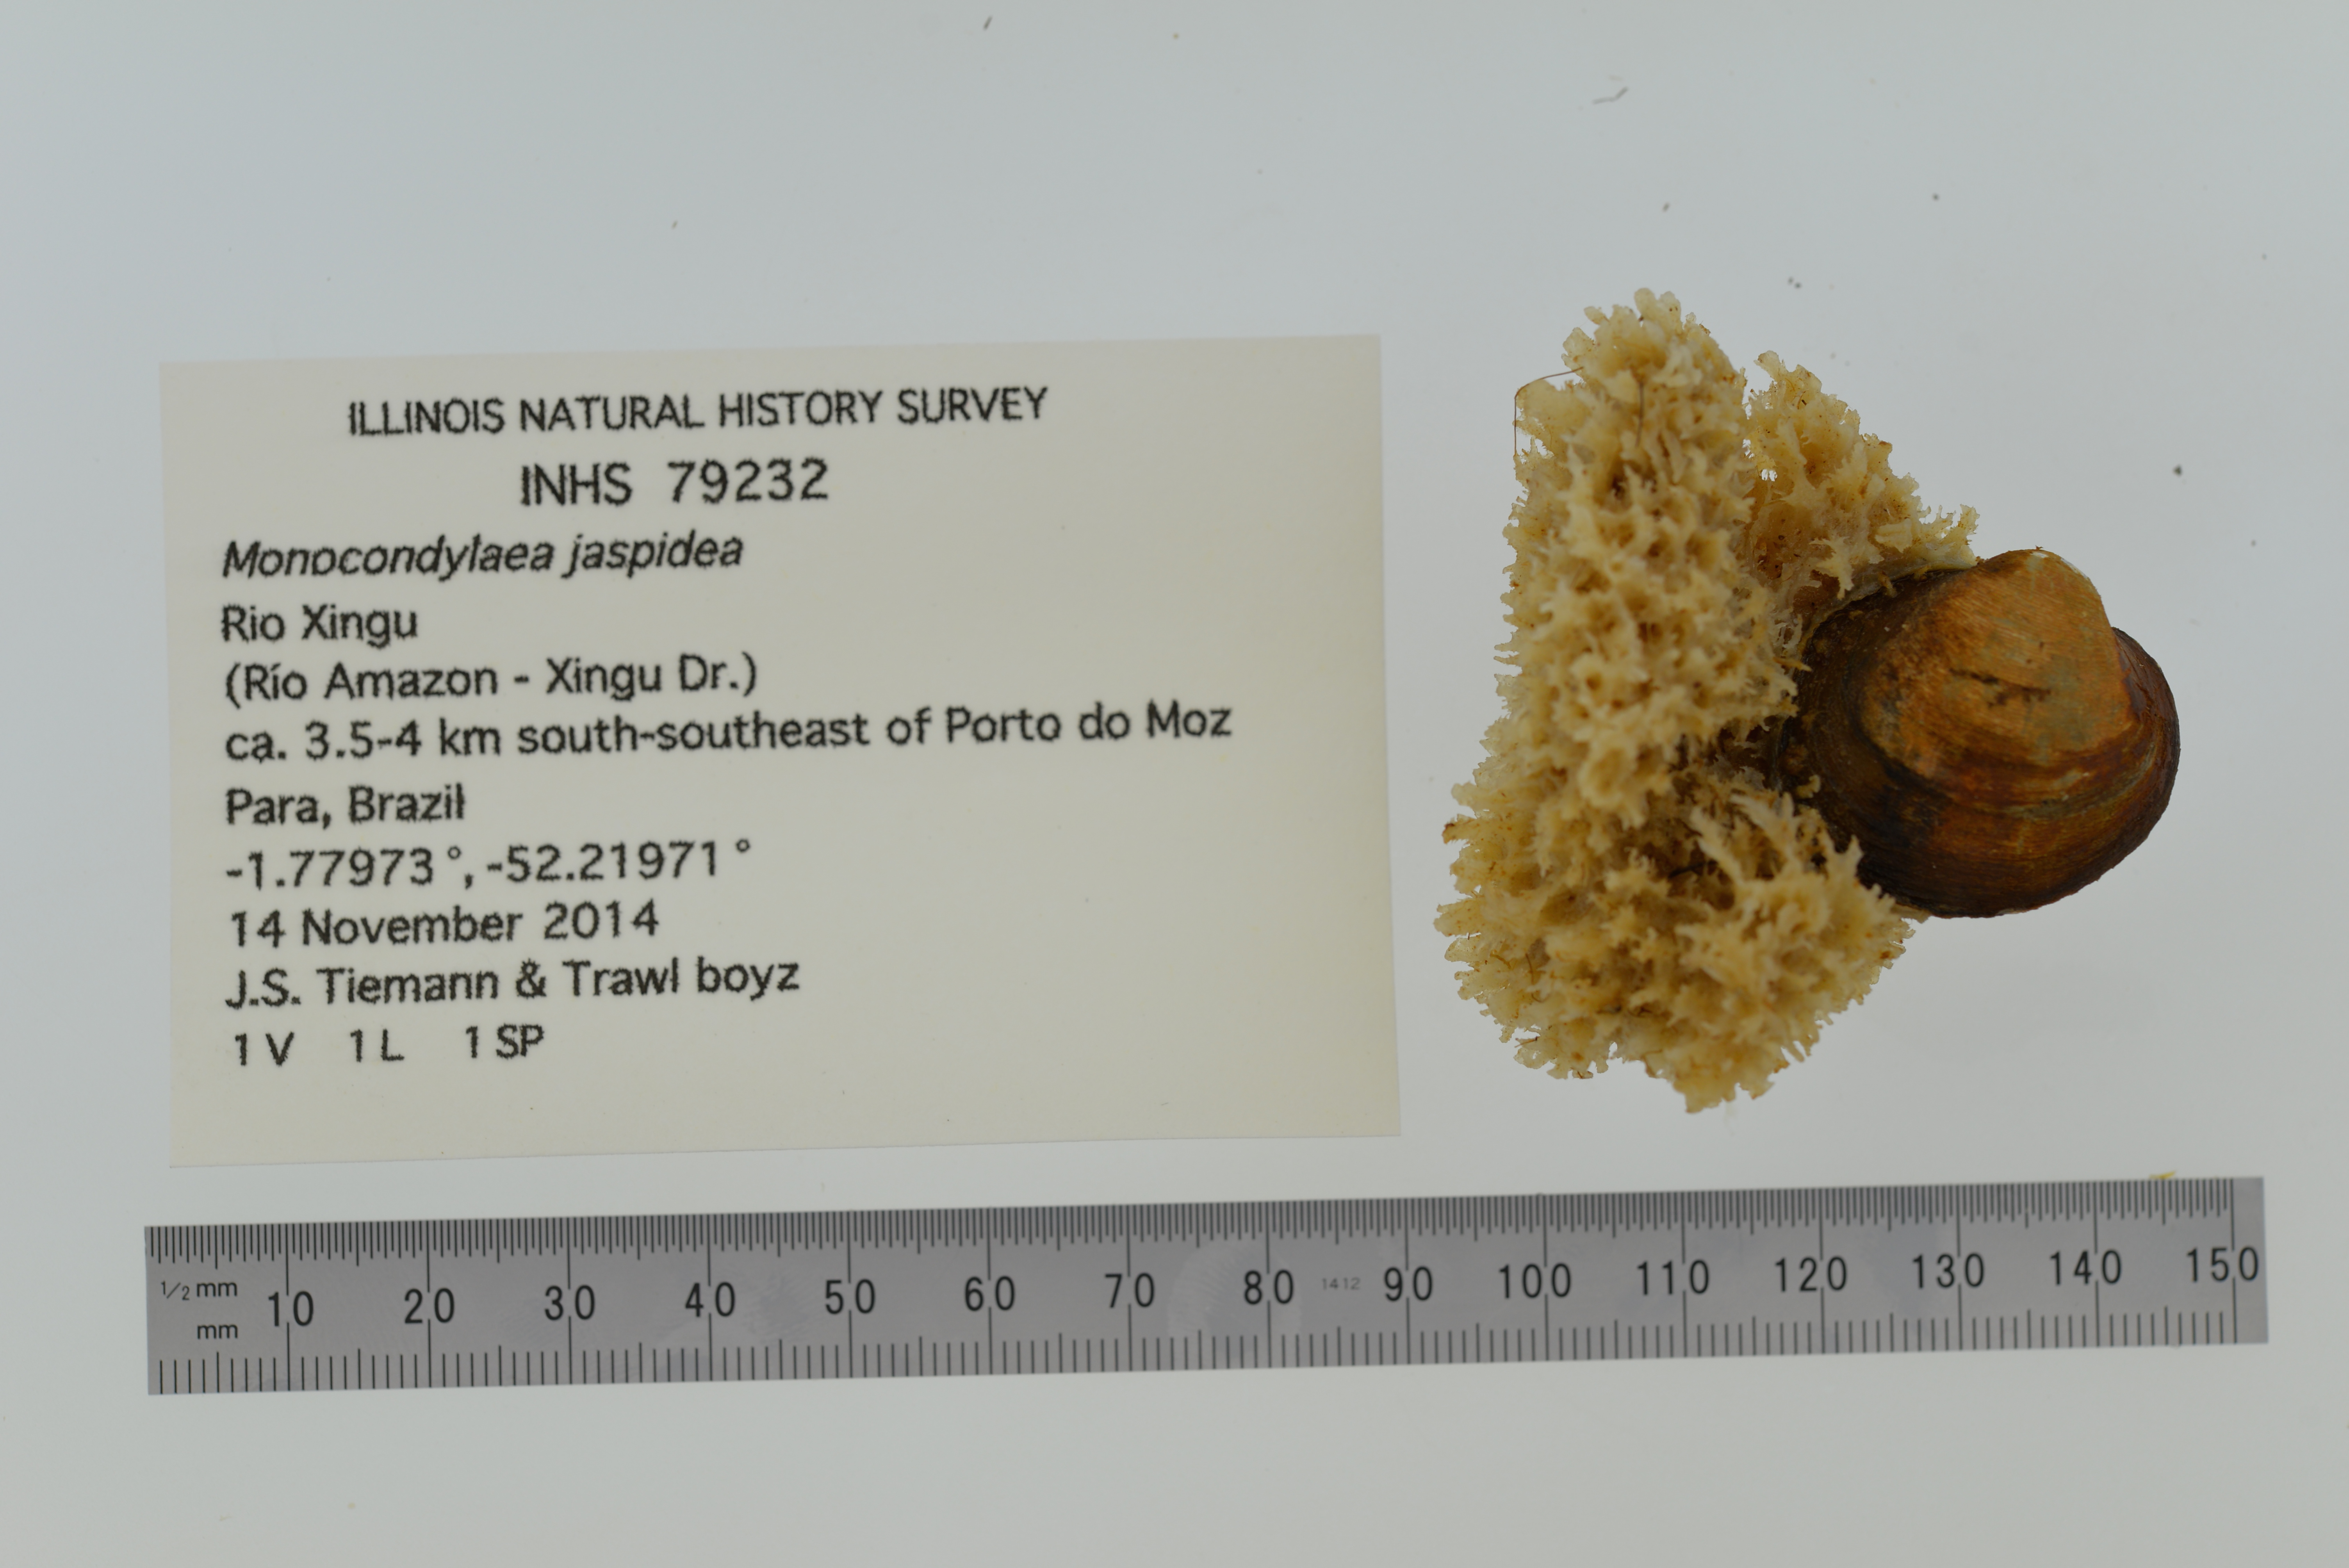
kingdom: Animalia
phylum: Mollusca
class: Bivalvia
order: Unionida
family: Mycetopodidae
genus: Monocondylaea
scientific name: Monocondylaea jaspidea
